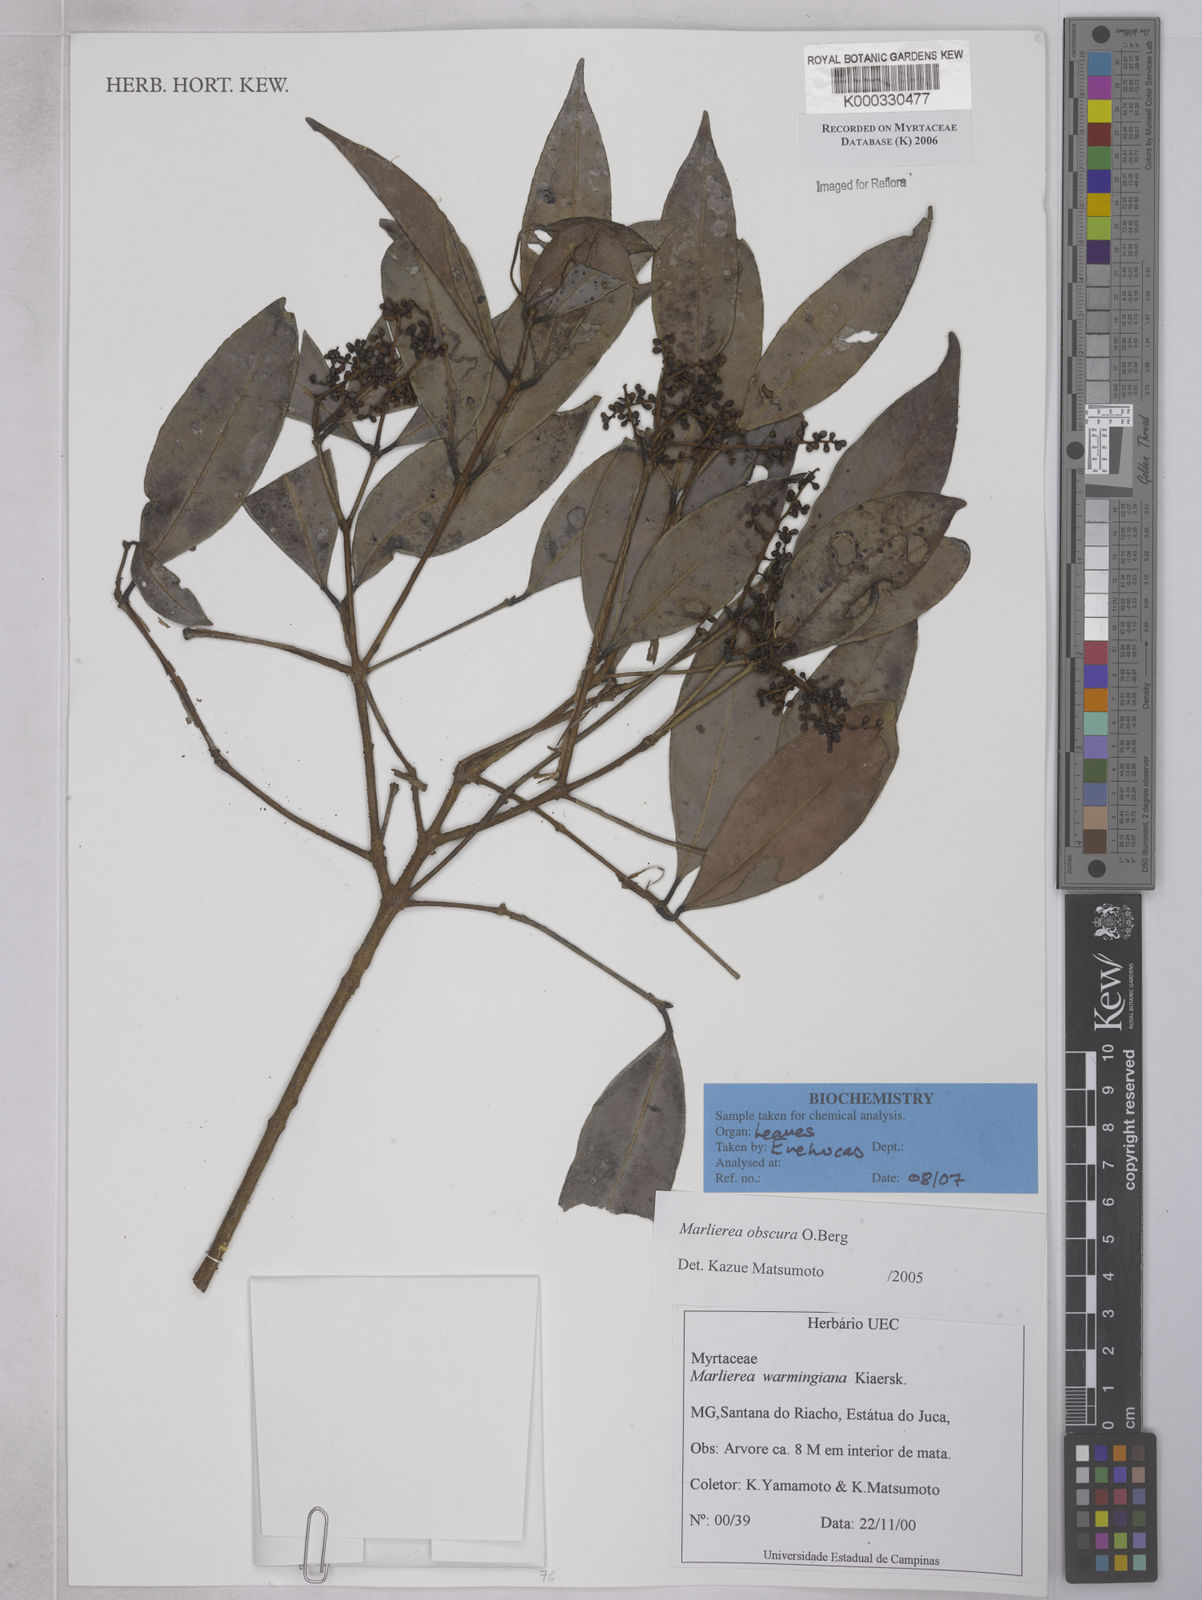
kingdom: Plantae
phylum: Tracheophyta
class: Magnoliopsida
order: Myrtales
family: Myrtaceae
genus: Myrcia
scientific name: Myrcia neoobscura
